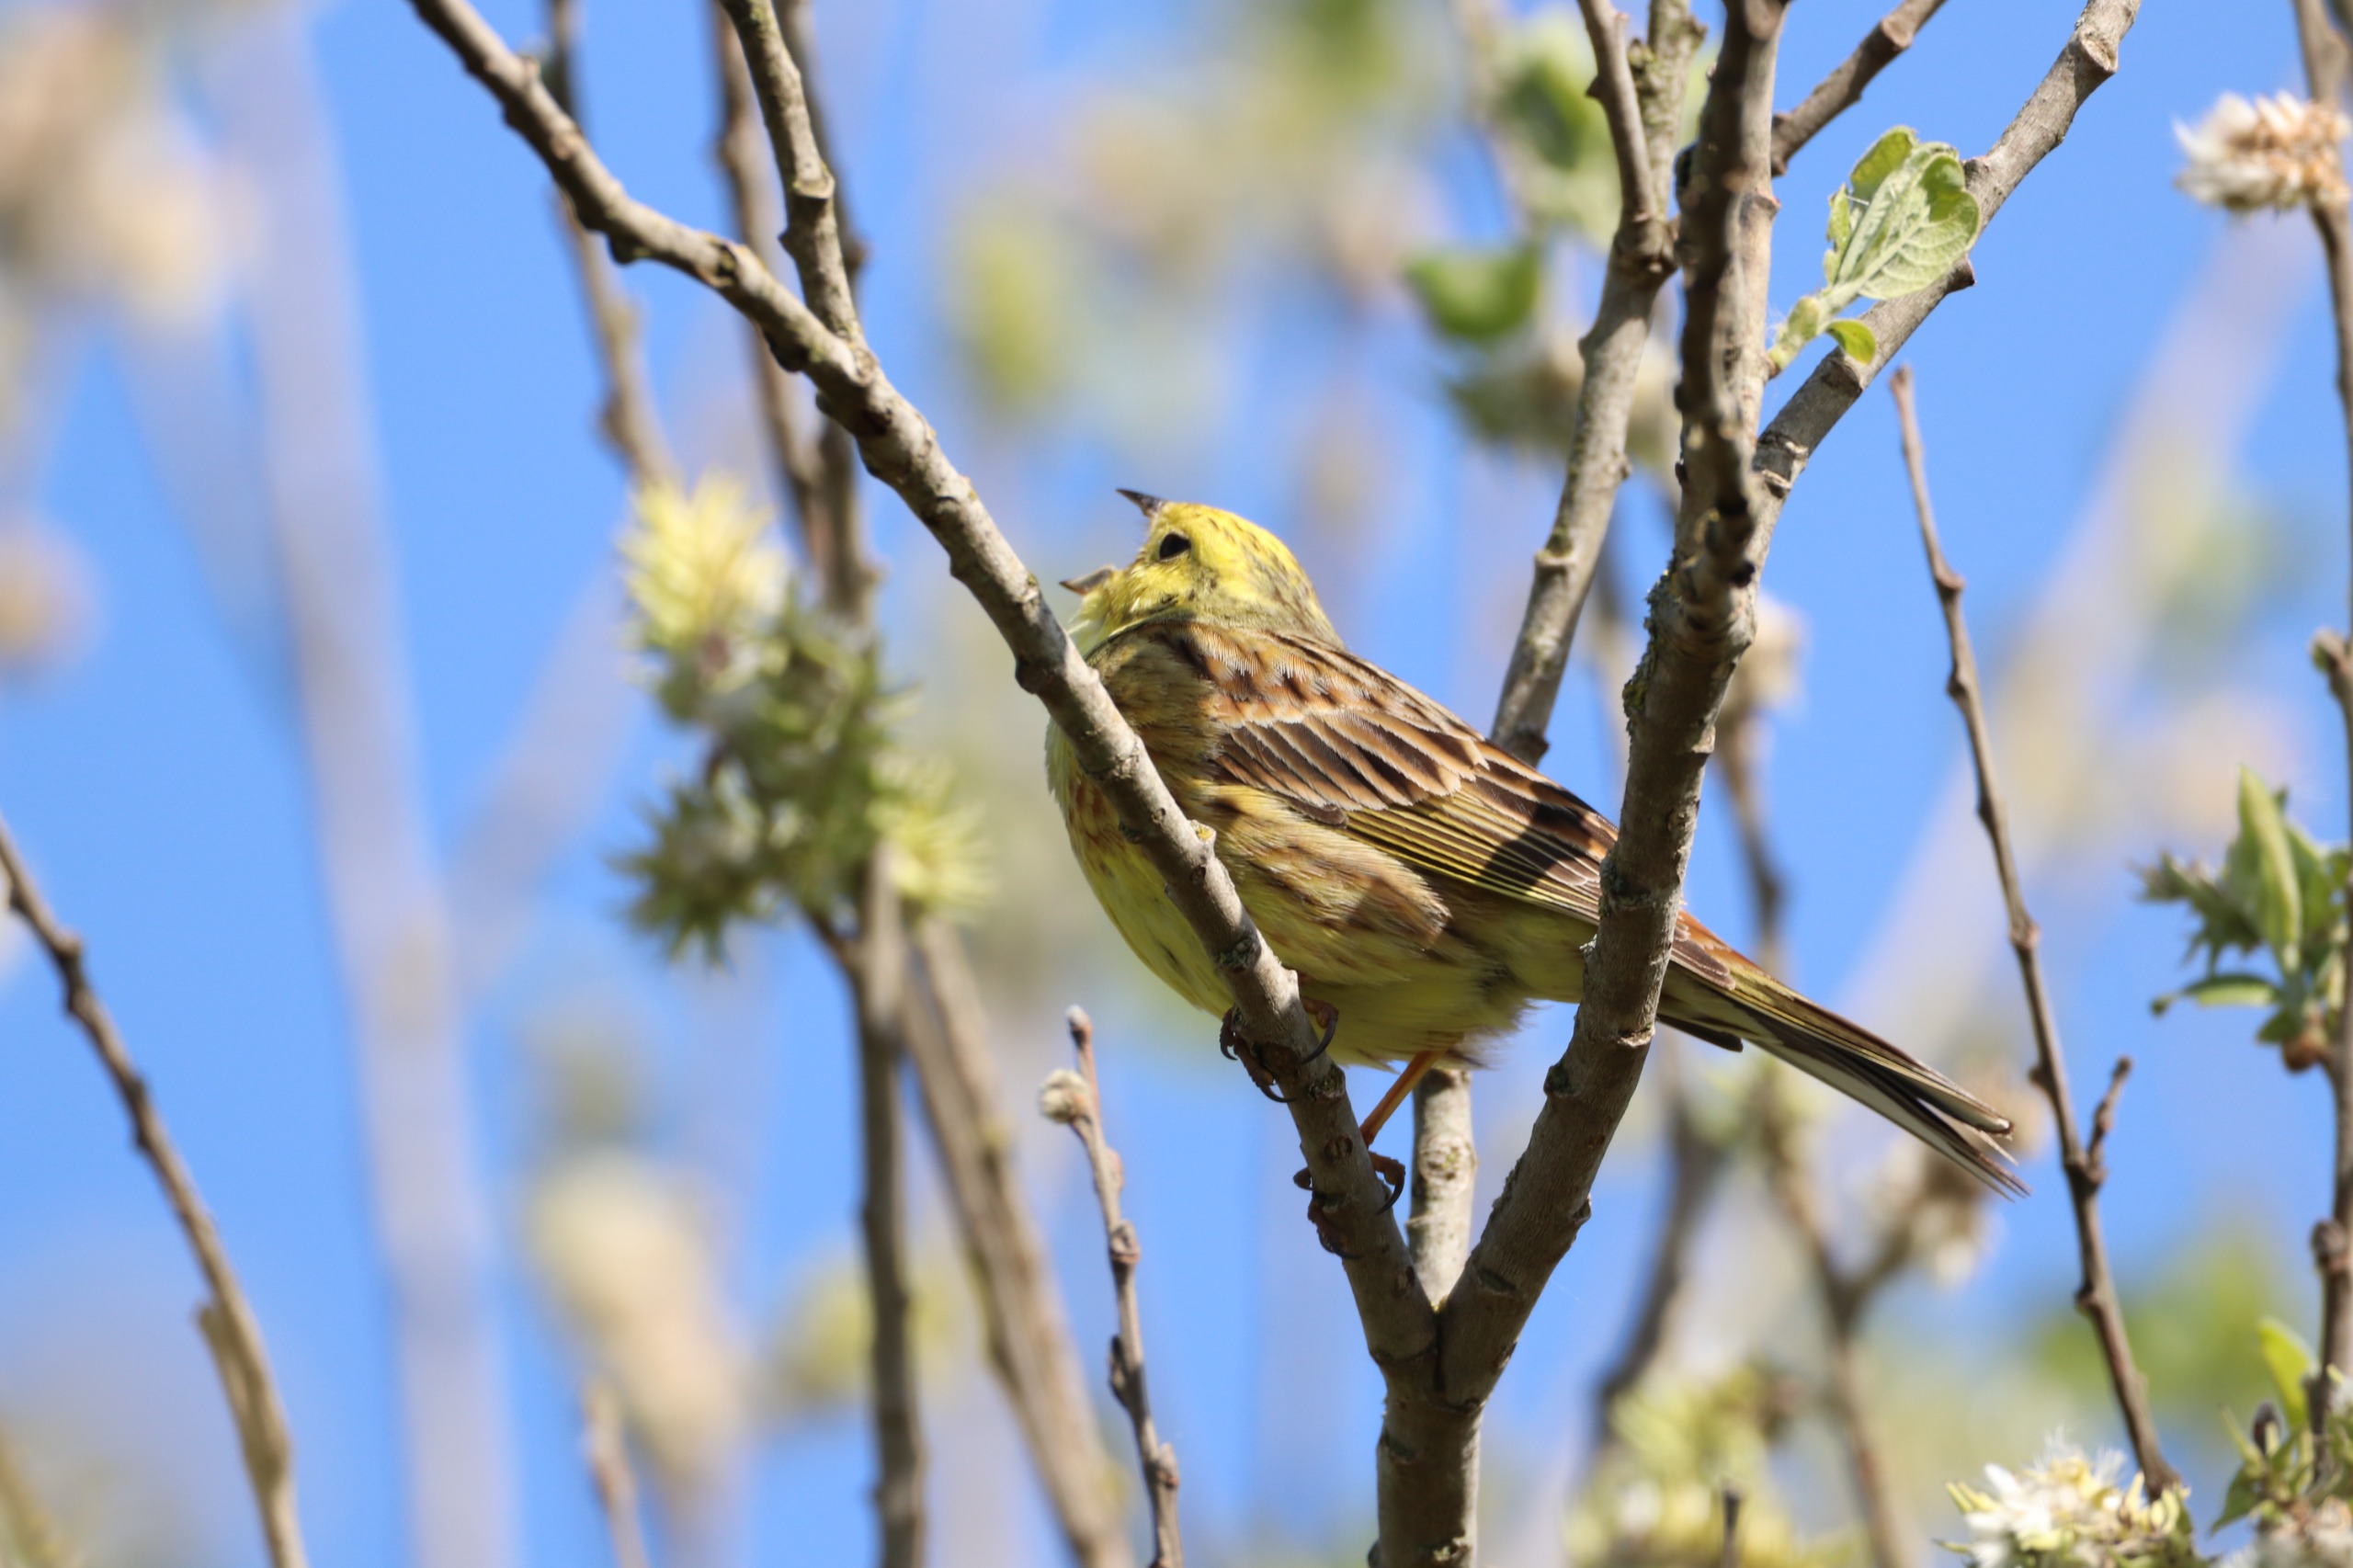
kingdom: Animalia
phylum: Chordata
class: Aves
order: Passeriformes
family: Emberizidae
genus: Emberiza
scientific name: Emberiza citrinella
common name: Gulspurv
